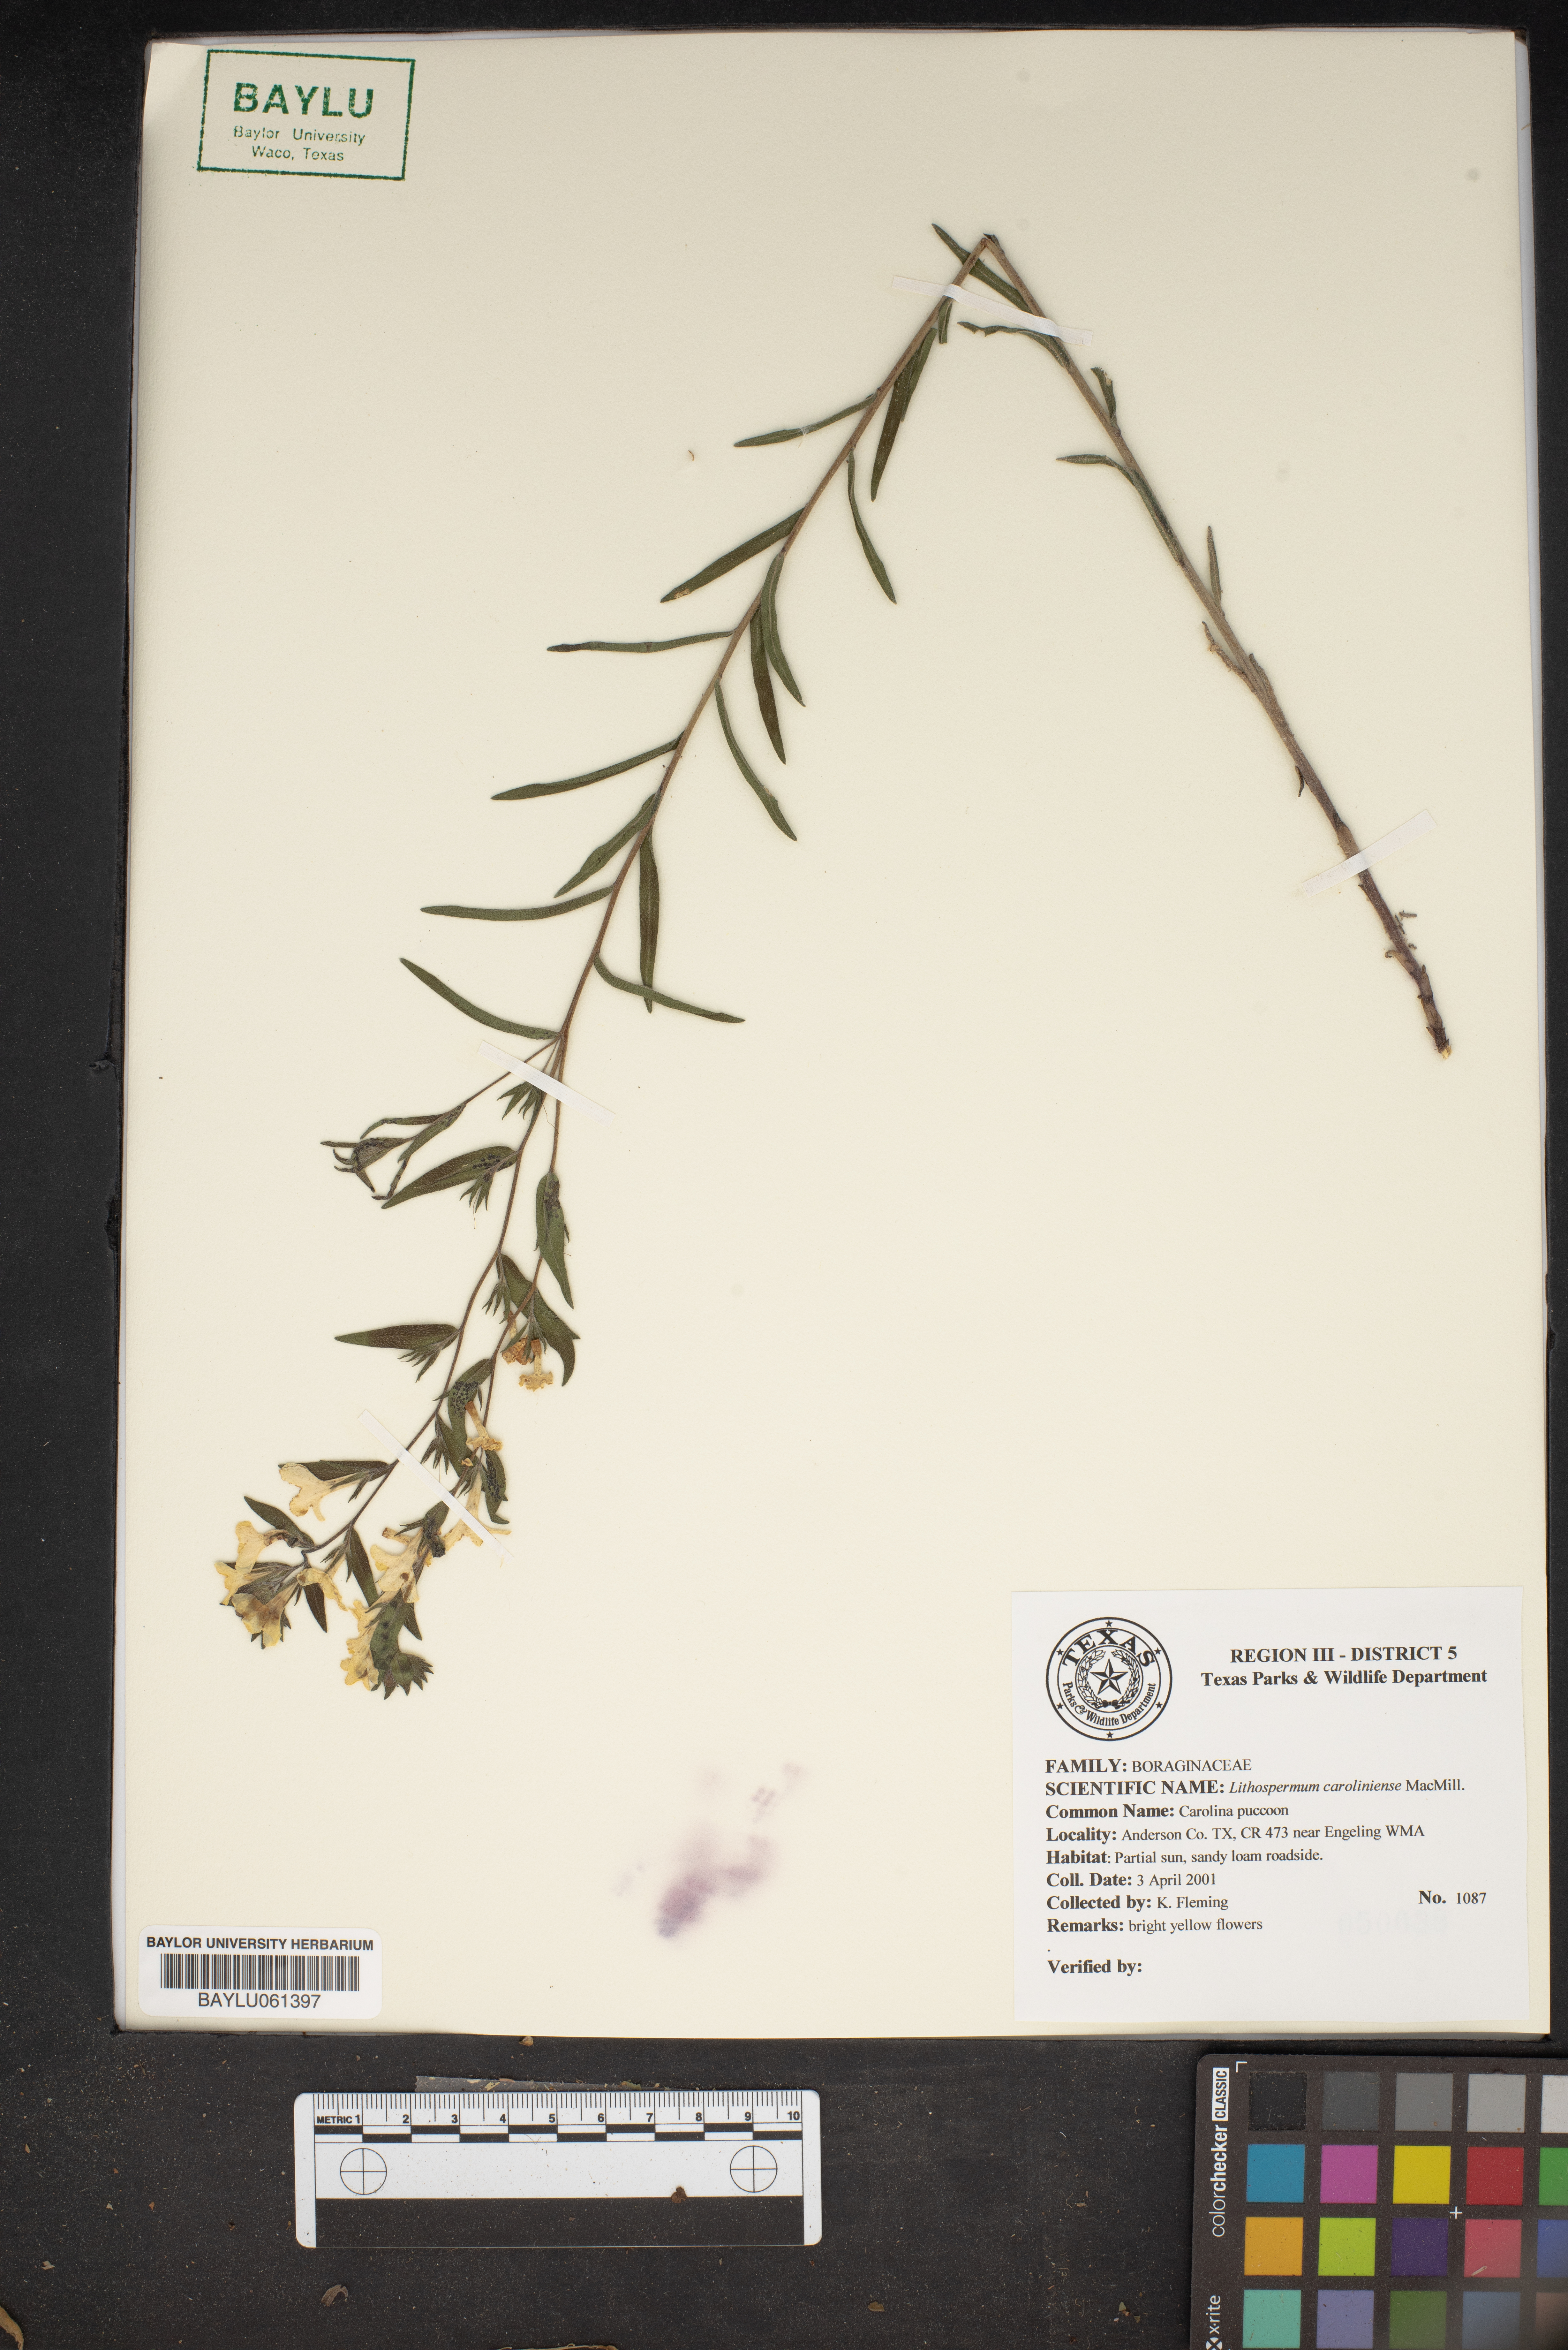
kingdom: Plantae
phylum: Tracheophyta
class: Magnoliopsida
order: Boraginales
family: Boraginaceae
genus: Lithospermum
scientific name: Lithospermum caroliniense
